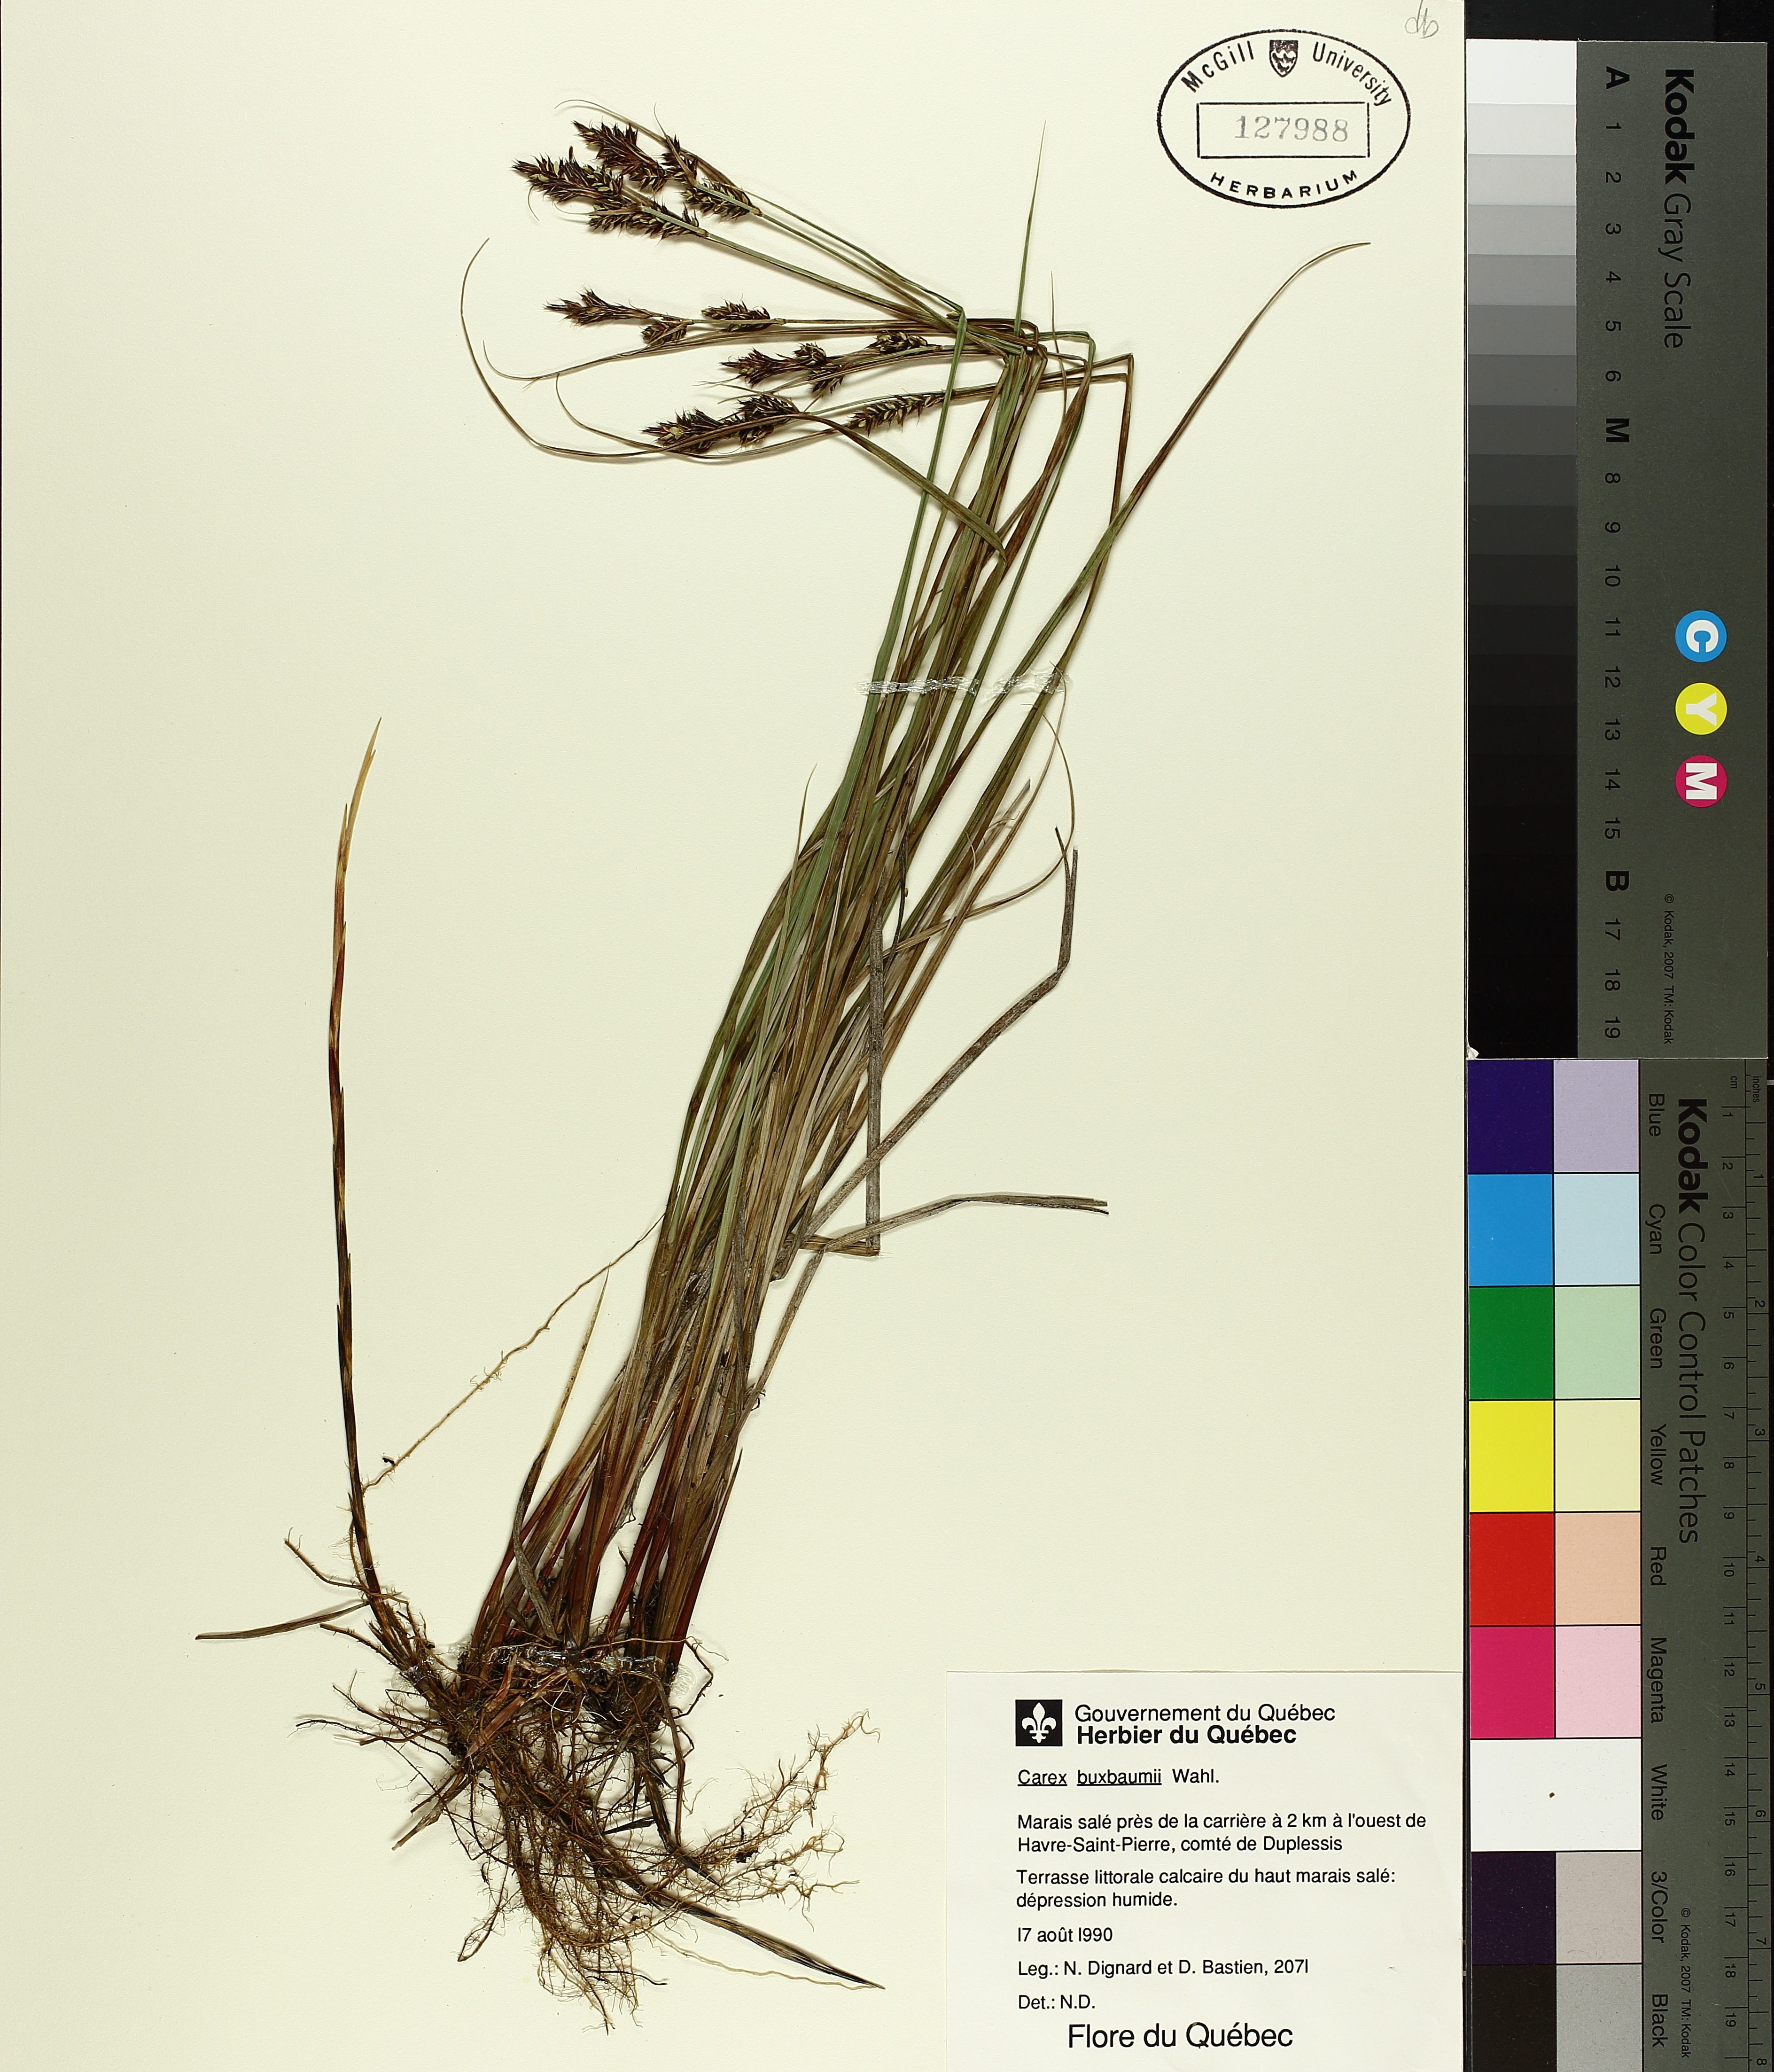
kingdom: Plantae
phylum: Tracheophyta
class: Liliopsida
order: Poales
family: Cyperaceae
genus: Carex
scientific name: Carex buxbaumii
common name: Club sedge
